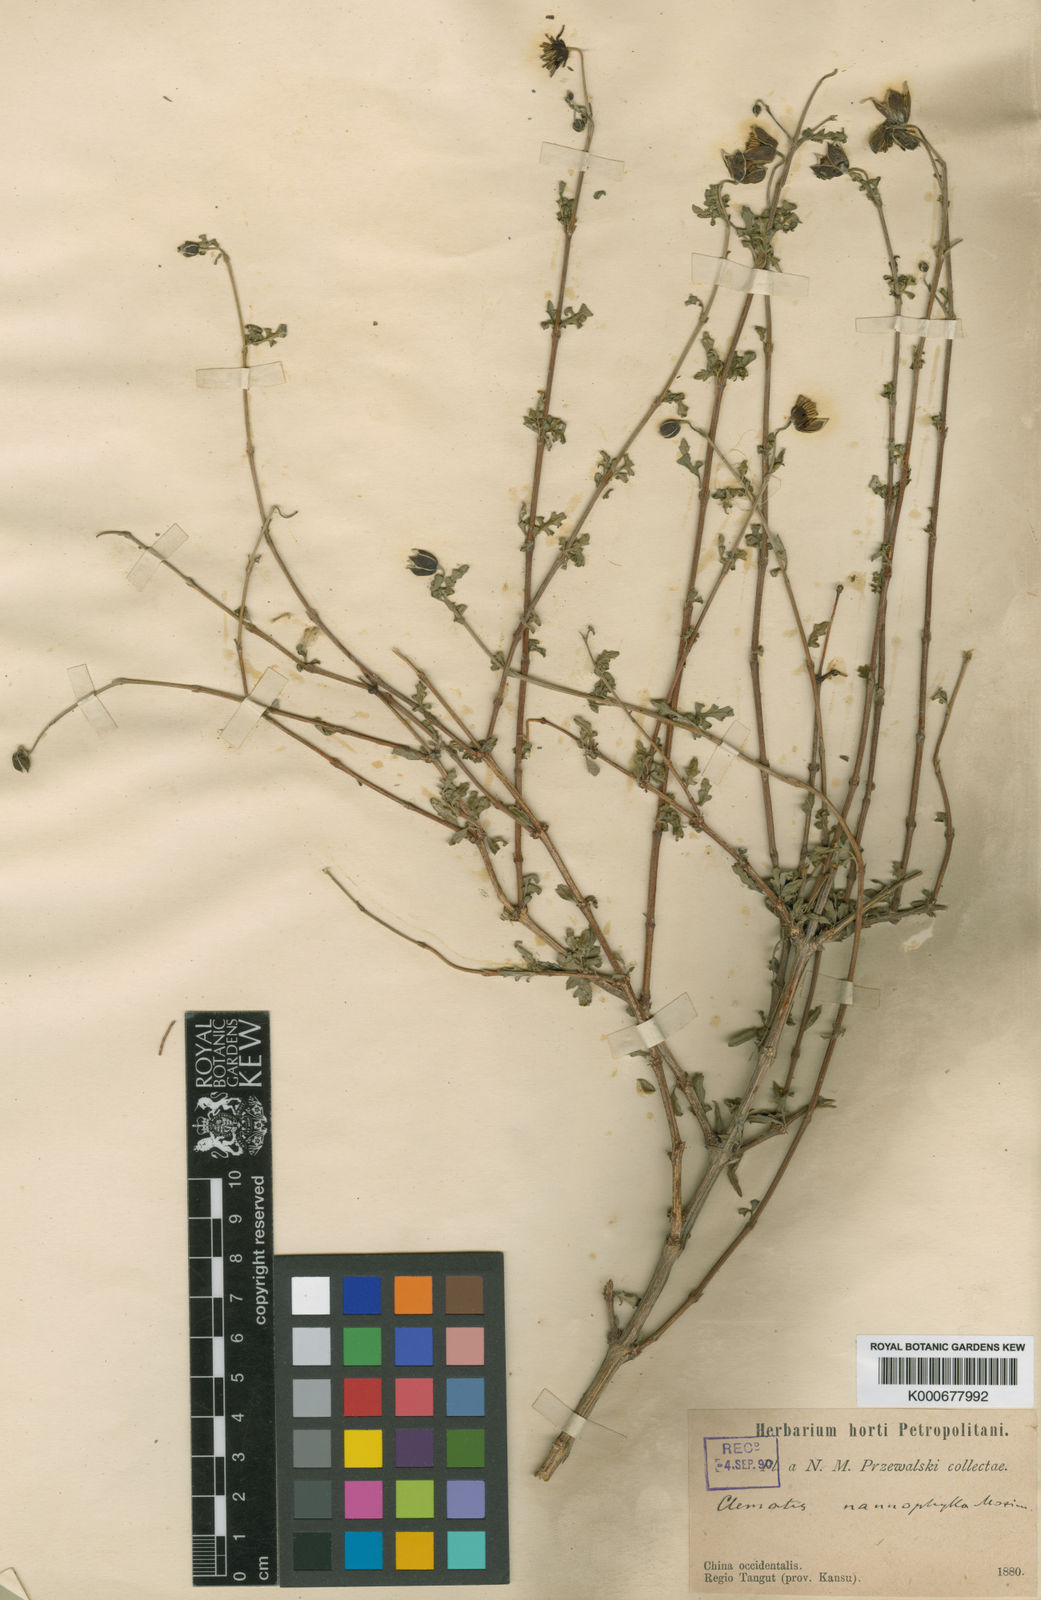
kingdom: Plantae
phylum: Tracheophyta
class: Magnoliopsida
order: Ranunculales
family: Ranunculaceae
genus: Clematis
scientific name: Clematis nannophylla
